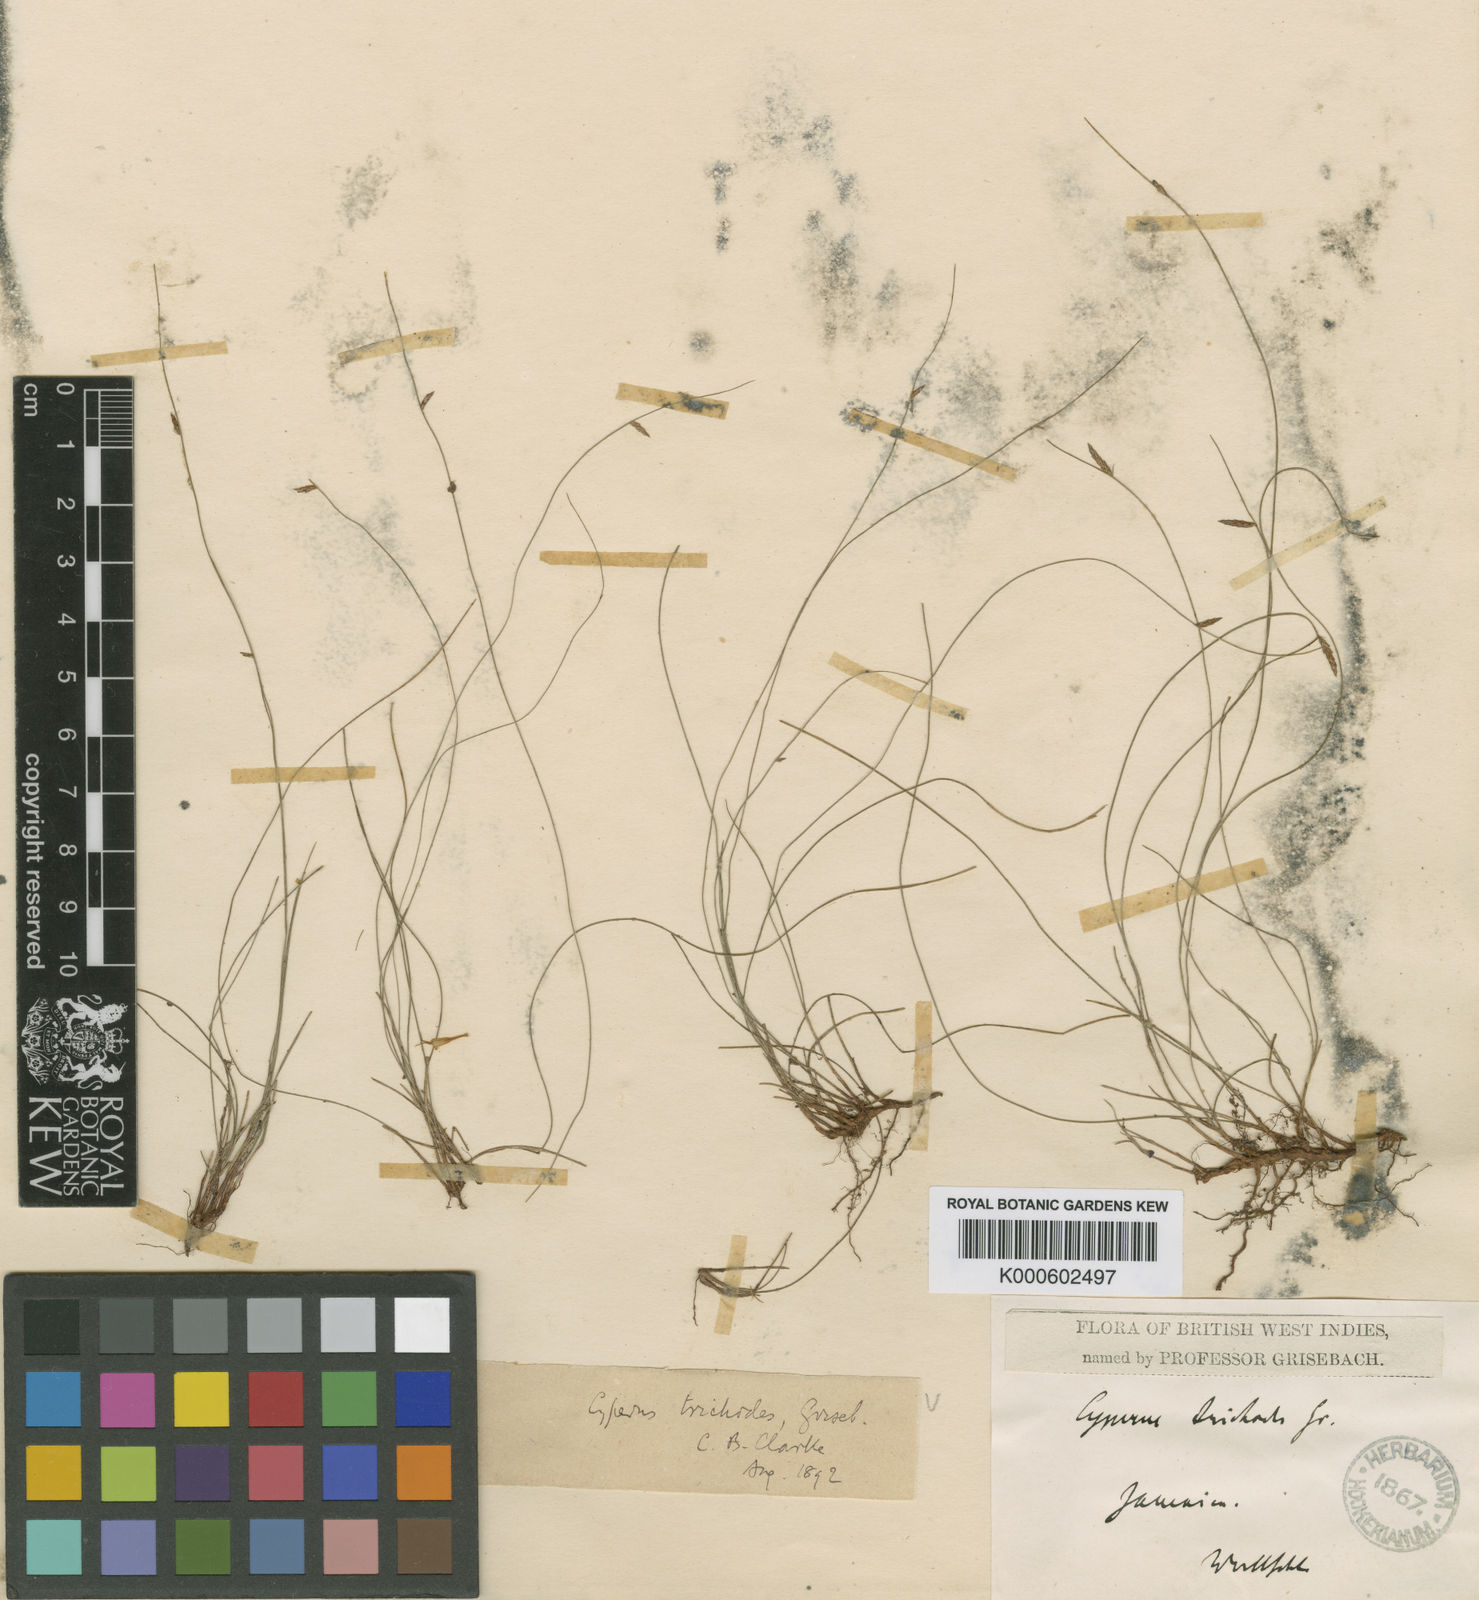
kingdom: Plantae
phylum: Tracheophyta
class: Liliopsida
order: Poales
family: Cyperaceae
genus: Cyperus
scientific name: Cyperus trichodes
